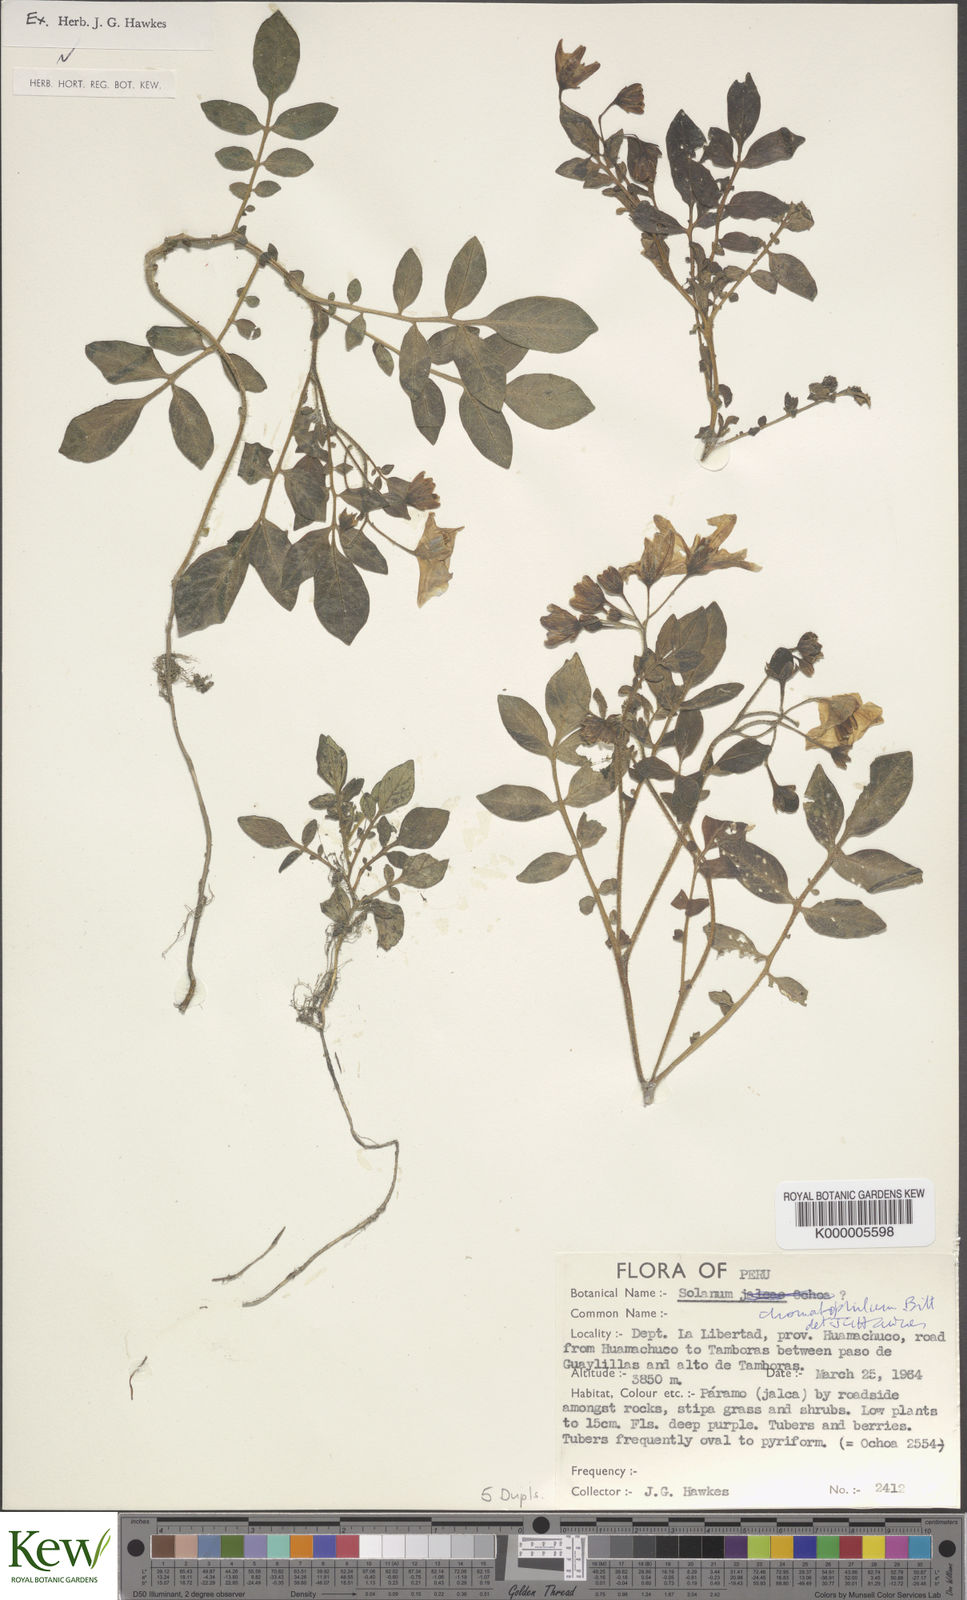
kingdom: Plantae
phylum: Tracheophyta
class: Magnoliopsida
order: Solanales
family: Solanaceae
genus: Solanum
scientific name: Solanum chomatophilum
